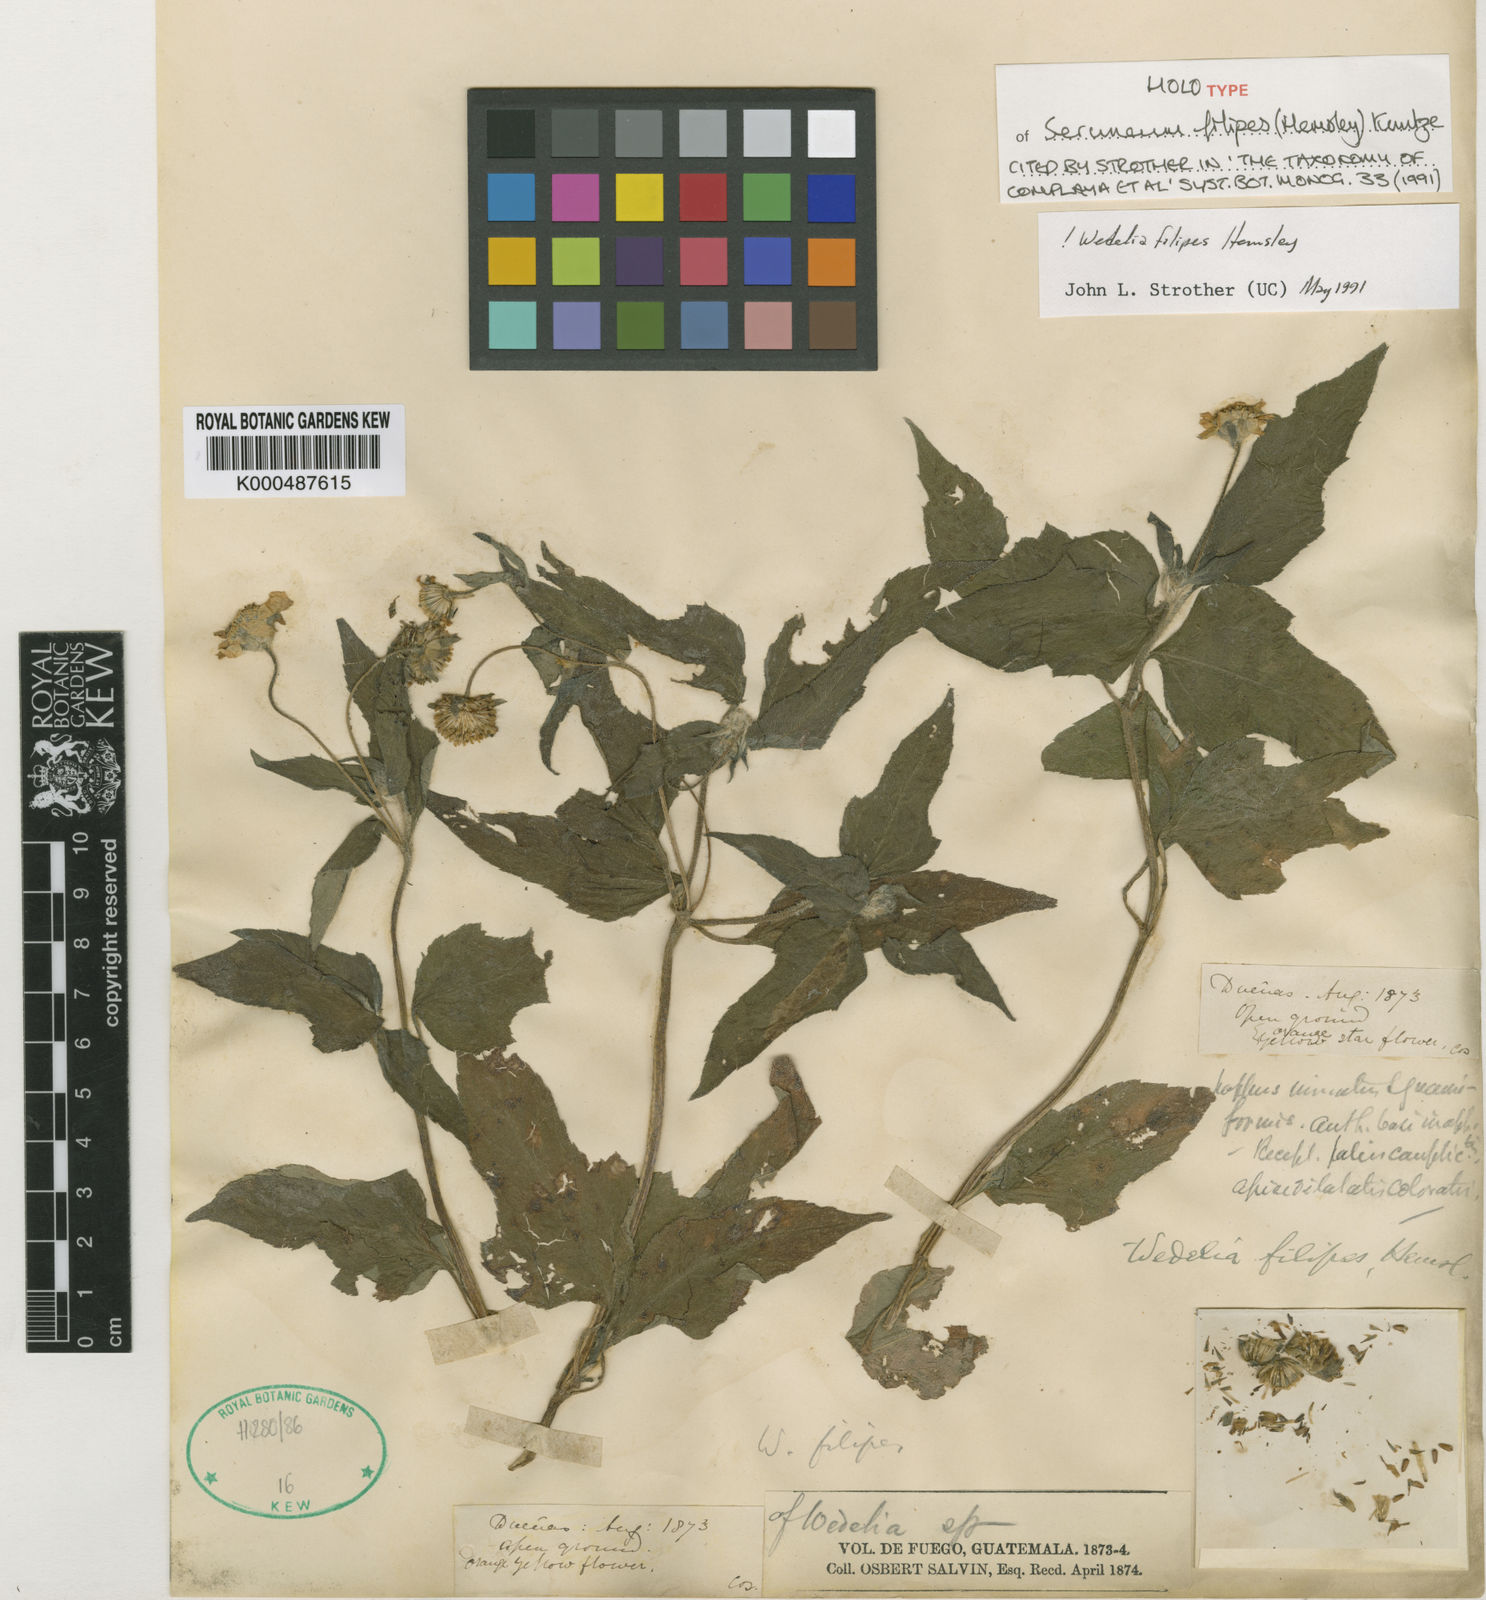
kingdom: Plantae
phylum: Tracheophyta
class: Magnoliopsida
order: Asterales
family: Asteraceae
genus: Wedelia
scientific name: Wedelia filipes
